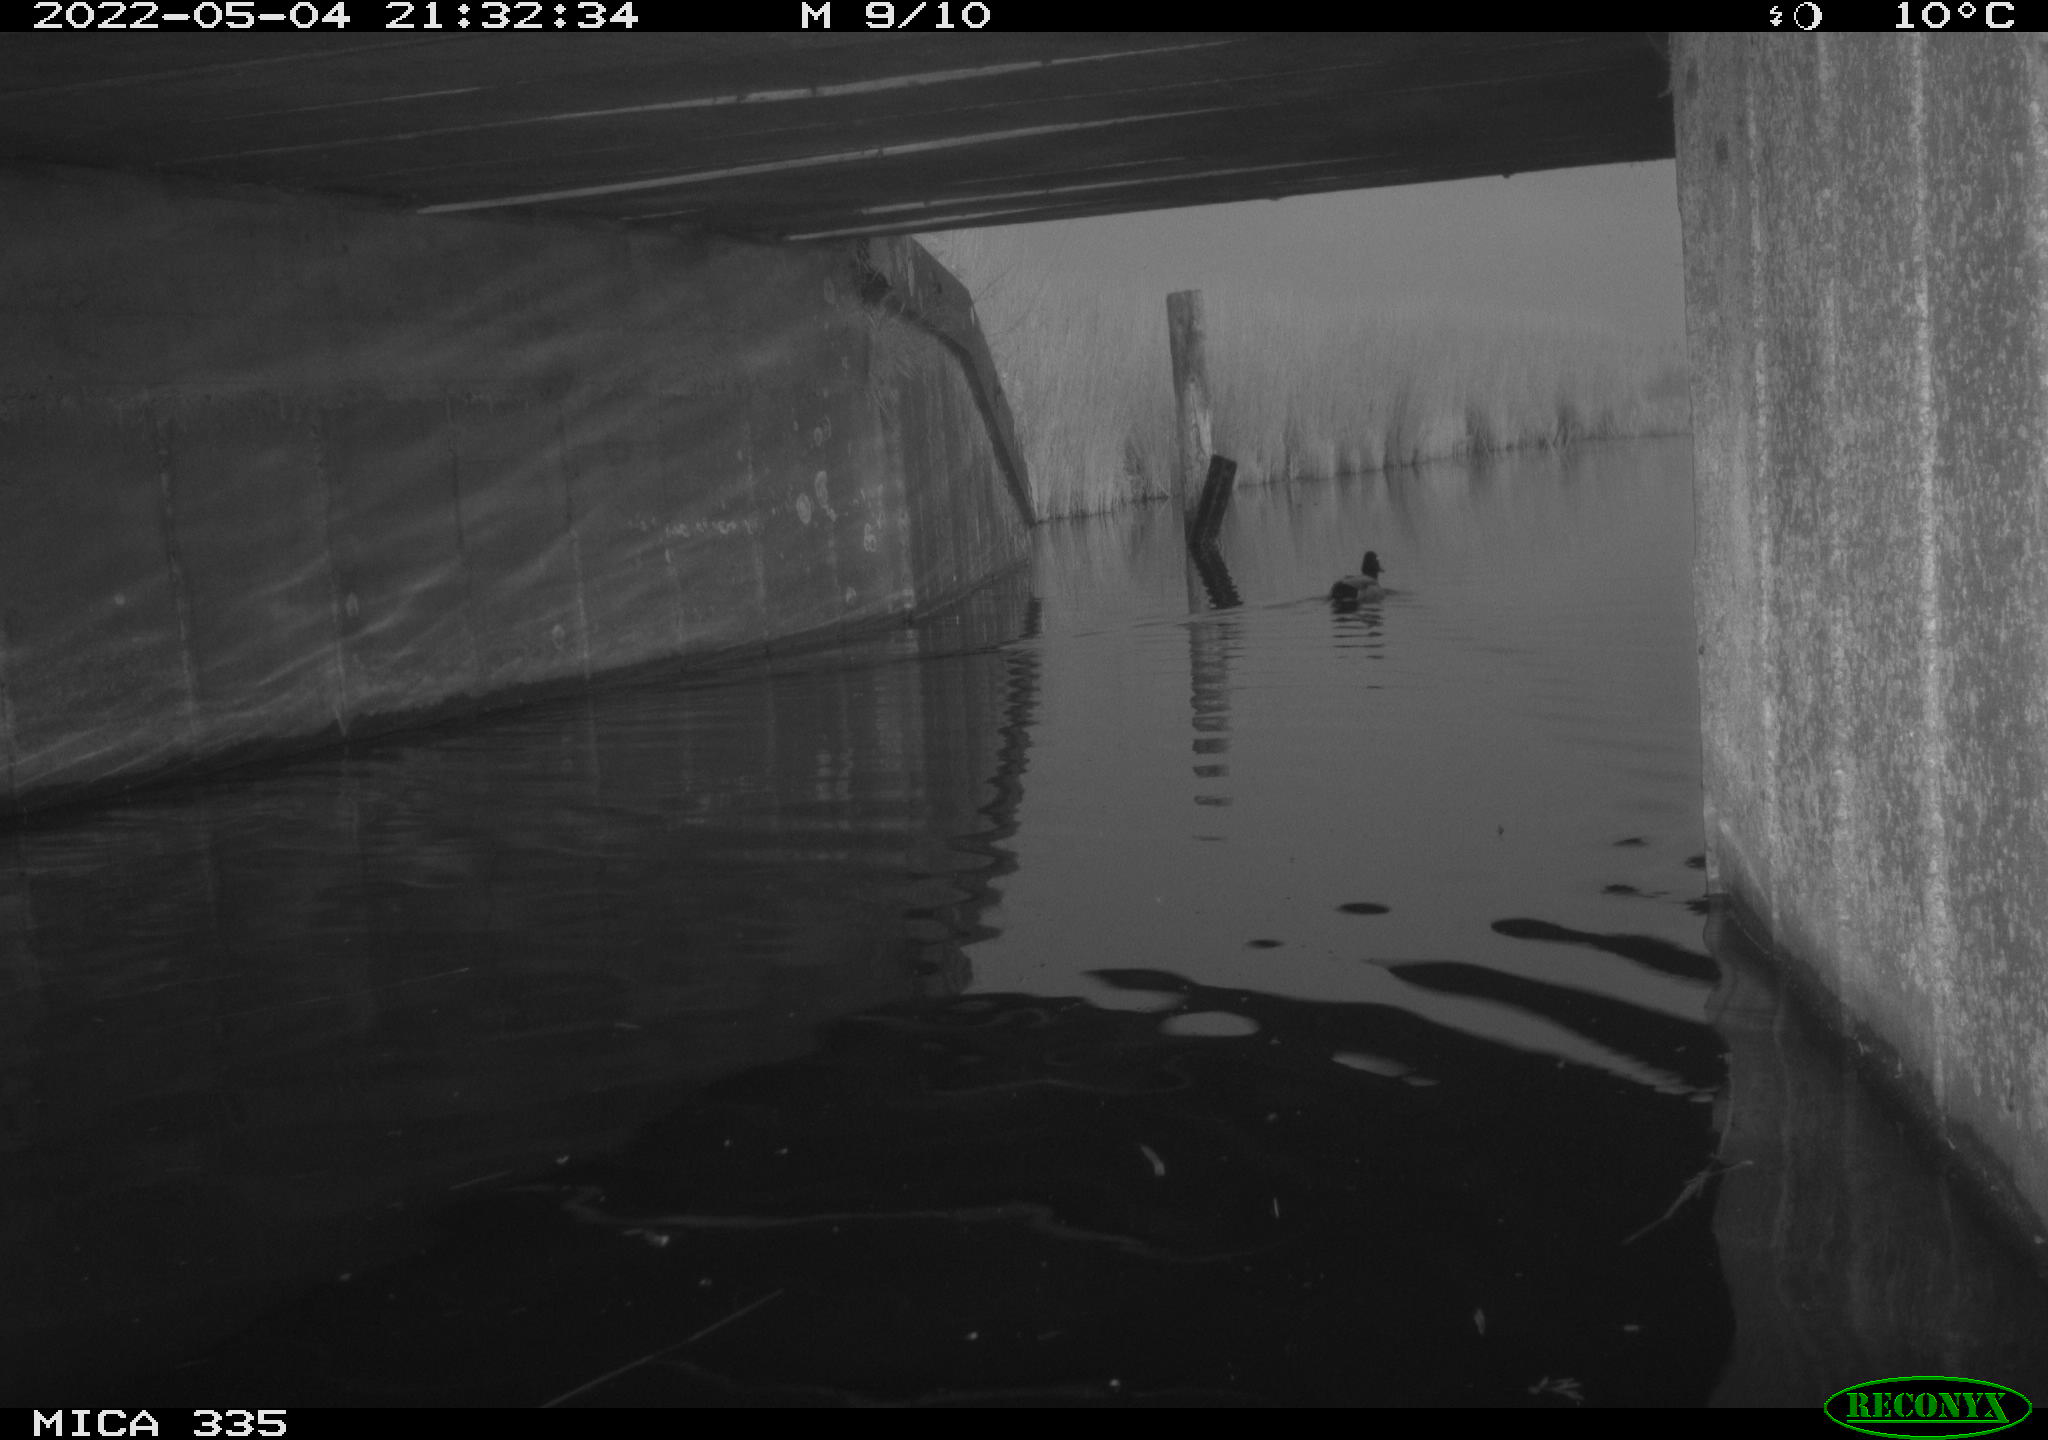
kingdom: Animalia
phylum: Chordata
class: Aves
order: Anseriformes
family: Anatidae
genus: Anas
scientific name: Anas platyrhynchos
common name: Mallard
